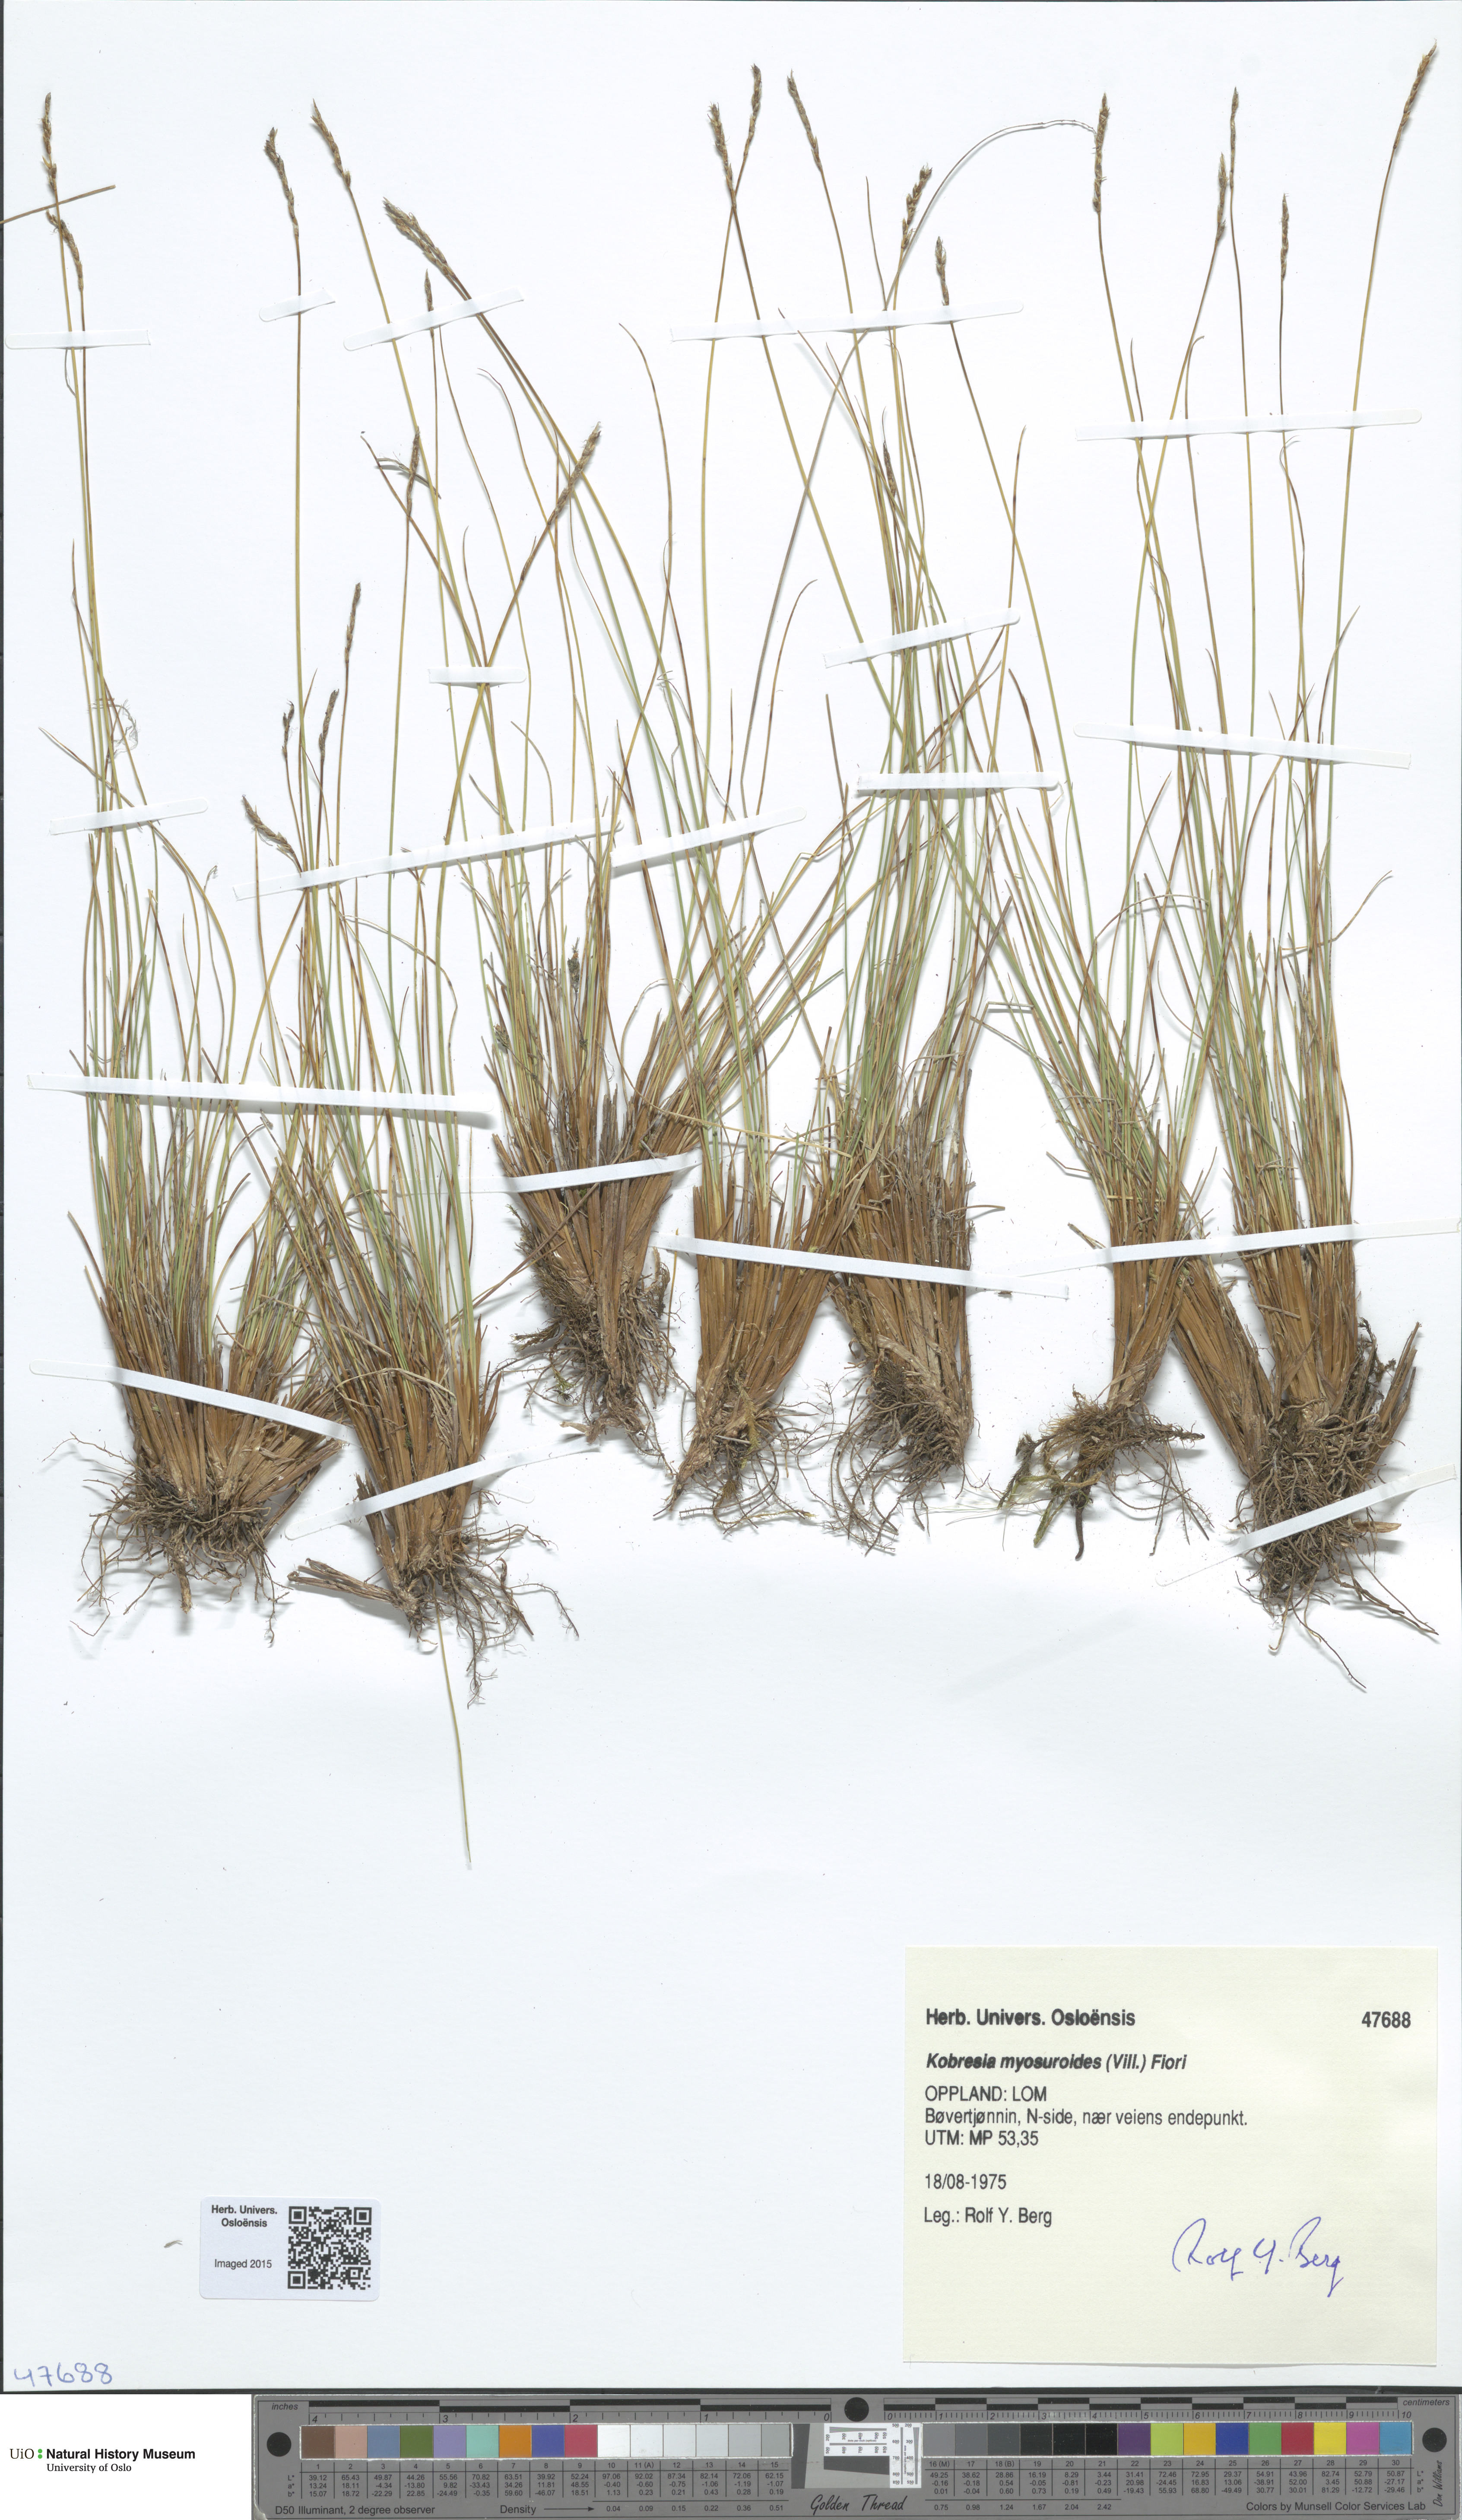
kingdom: Plantae
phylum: Tracheophyta
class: Liliopsida
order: Poales
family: Cyperaceae
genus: Carex
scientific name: Carex myosuroides
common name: Bellard's bog sedge
